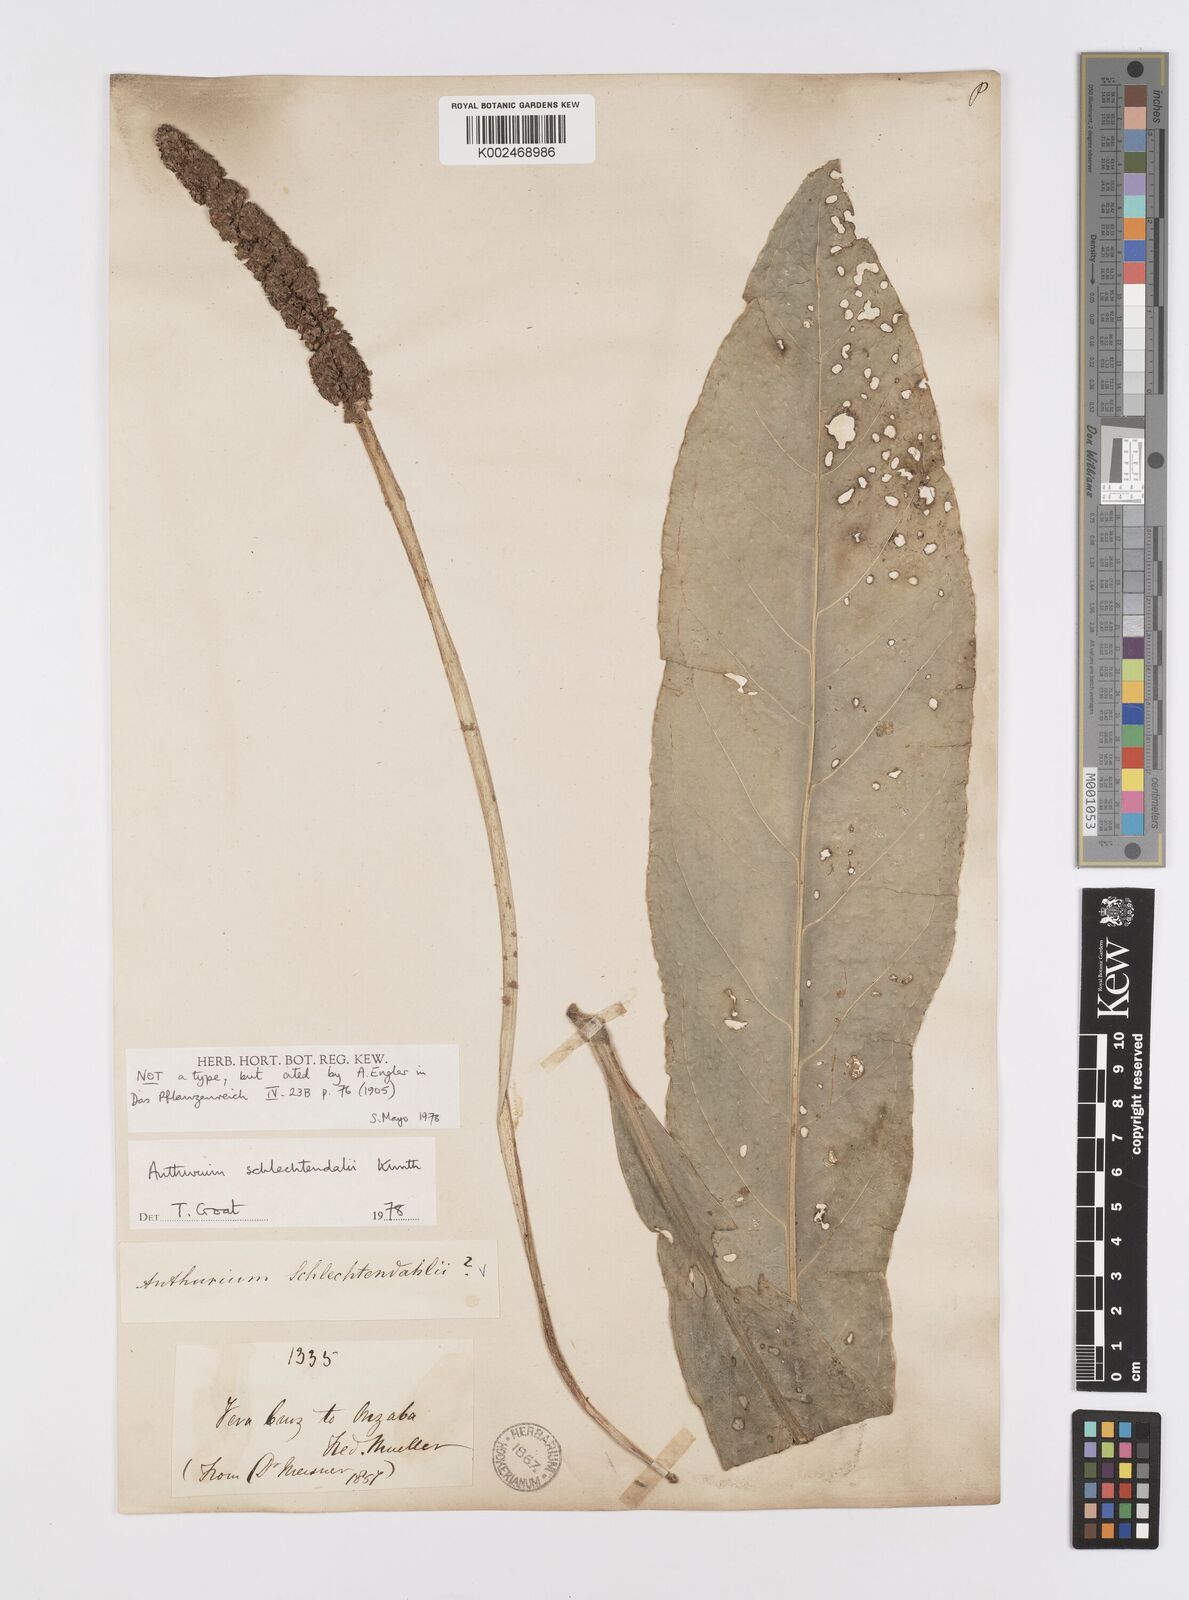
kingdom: Plantae
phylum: Tracheophyta
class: Liliopsida
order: Alismatales
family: Araceae
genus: Anthurium
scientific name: Anthurium schlechtendalii
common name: Laceleaf
